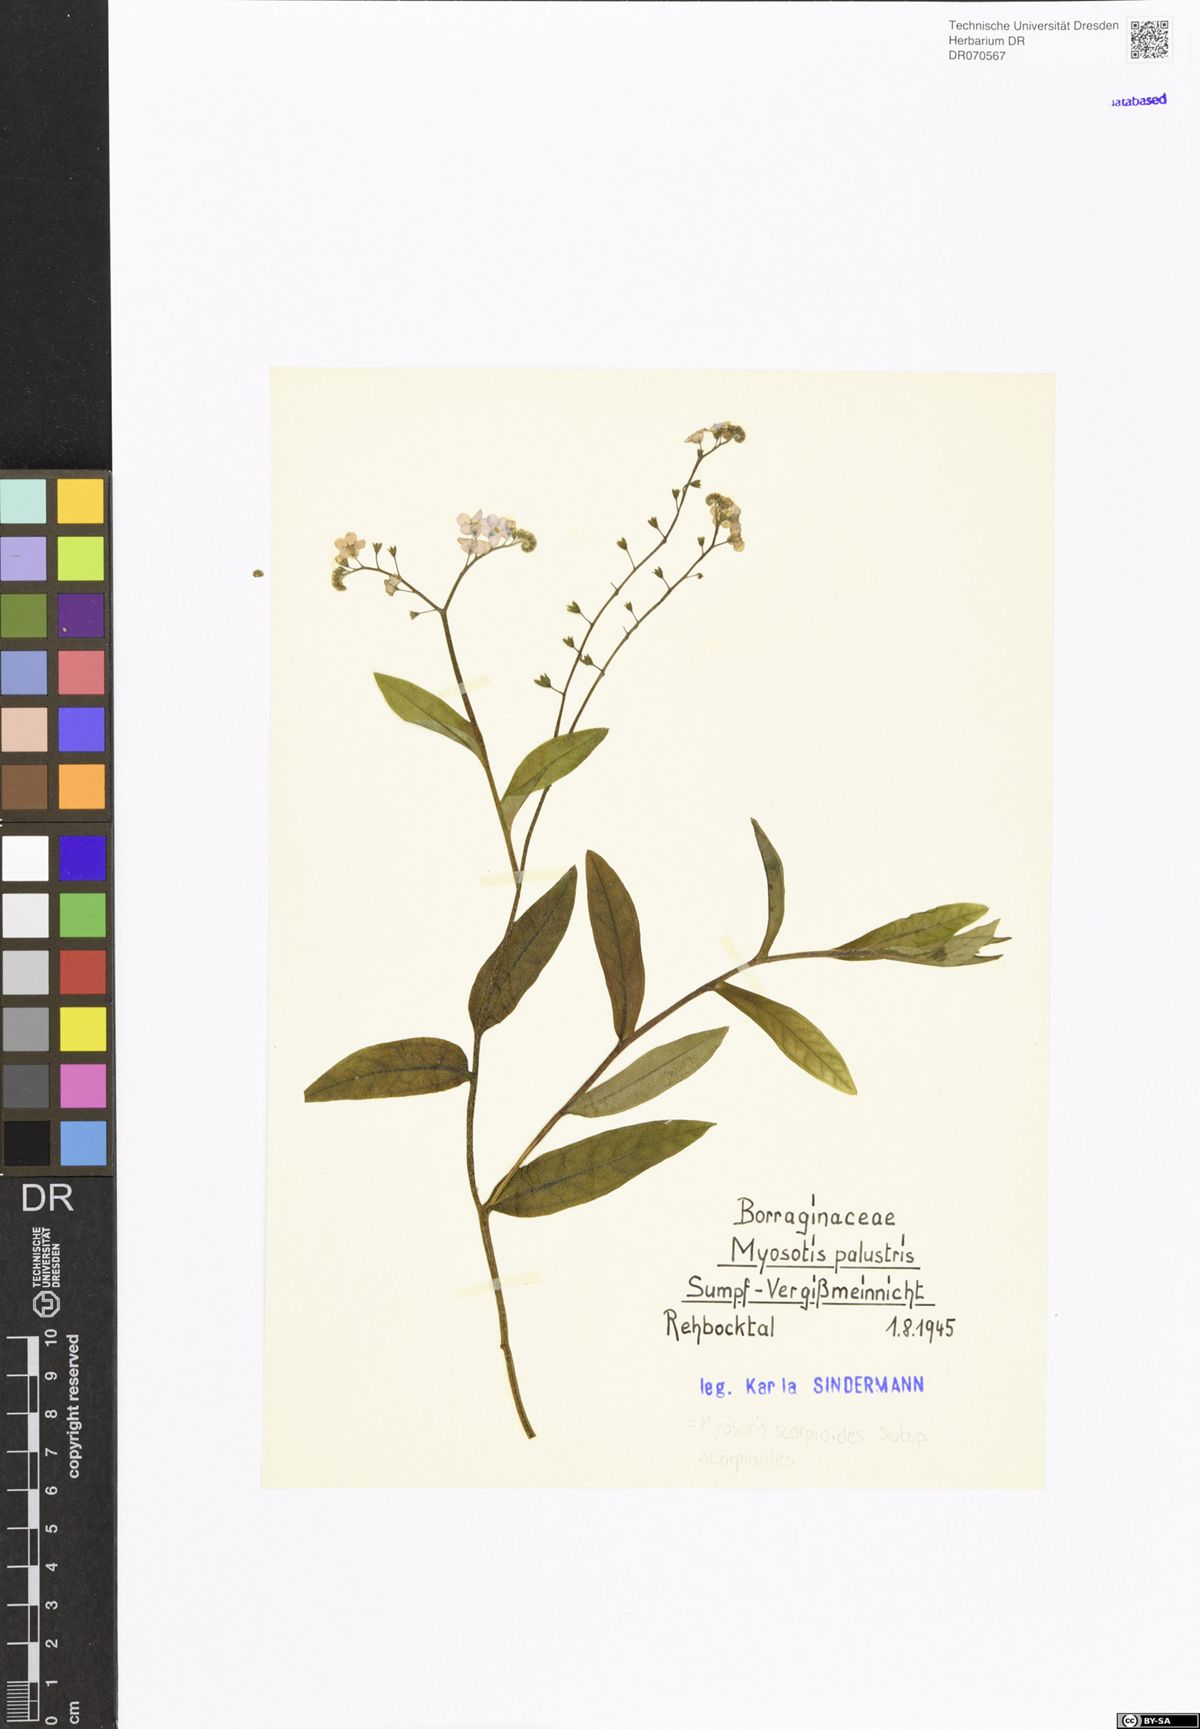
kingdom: Plantae
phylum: Tracheophyta
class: Magnoliopsida
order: Boraginales
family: Boraginaceae
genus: Myosotis
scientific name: Myosotis scorpioides
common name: Water forget-me-not
